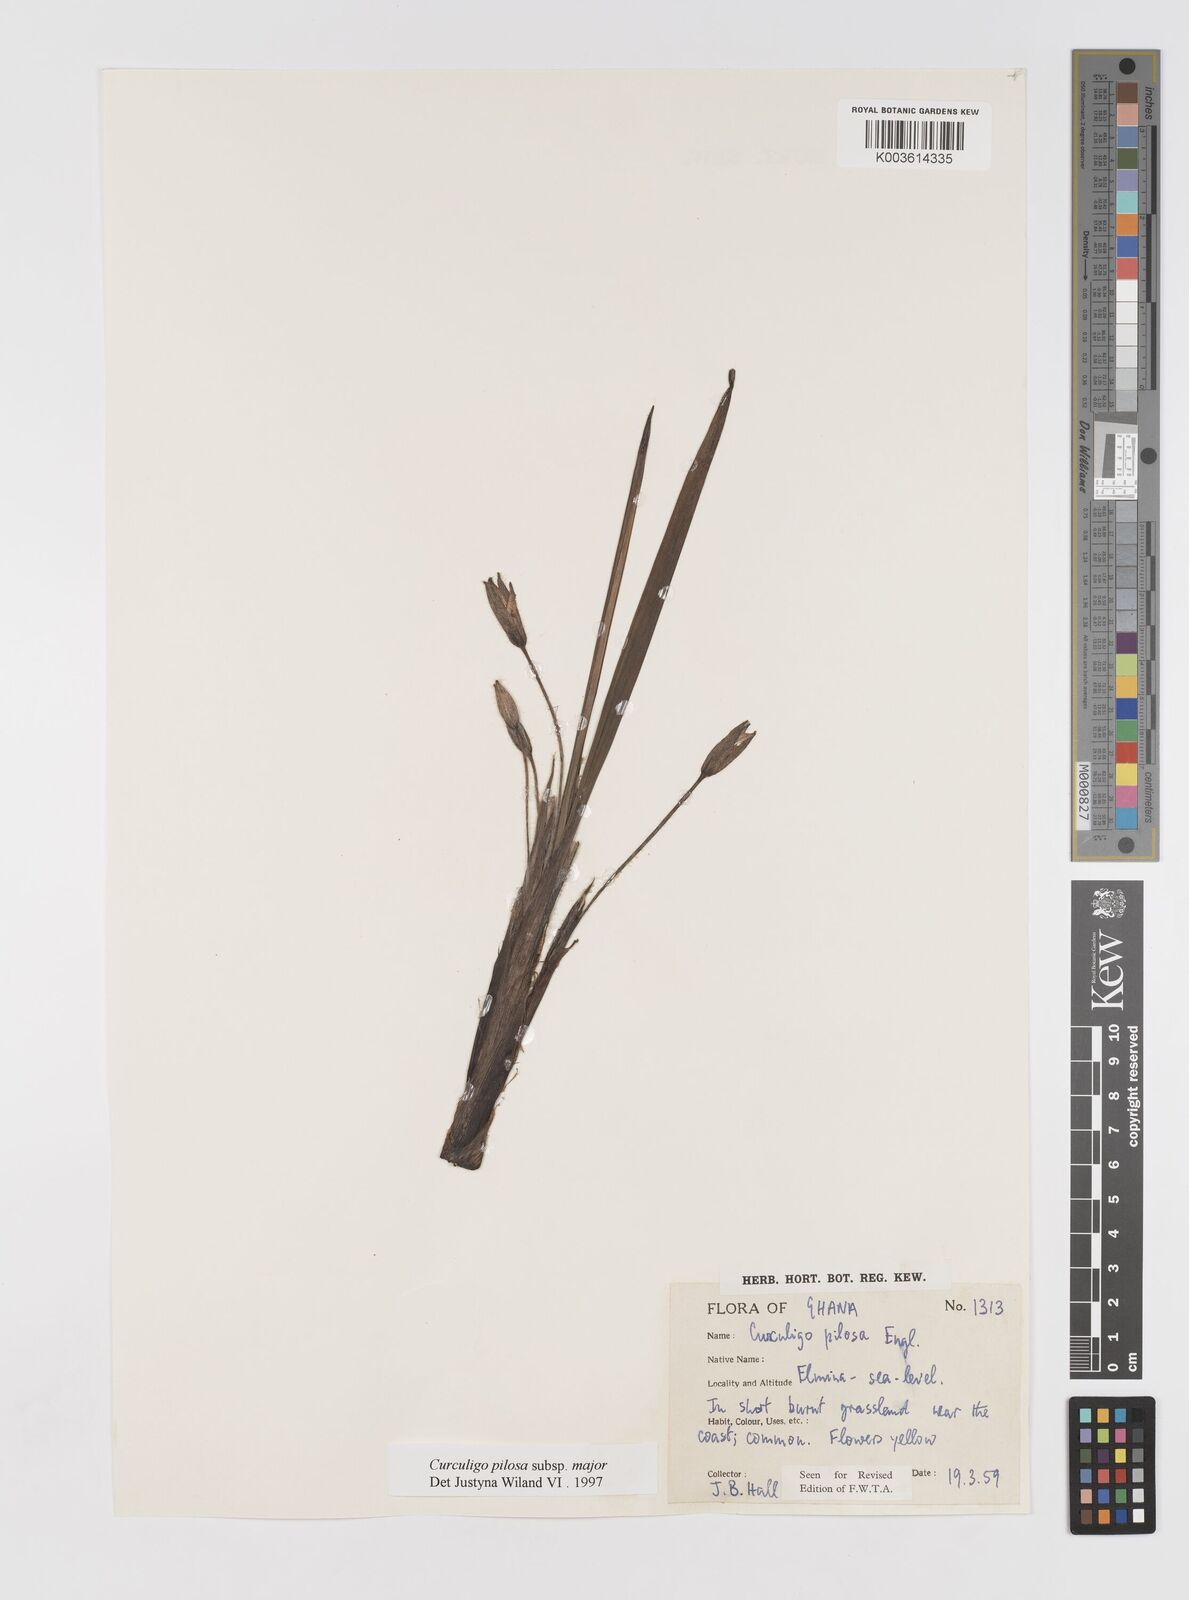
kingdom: Plantae
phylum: Tracheophyta
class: Liliopsida
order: Asparagales
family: Hypoxidaceae
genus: Curculigo
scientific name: Curculigo pilosa
